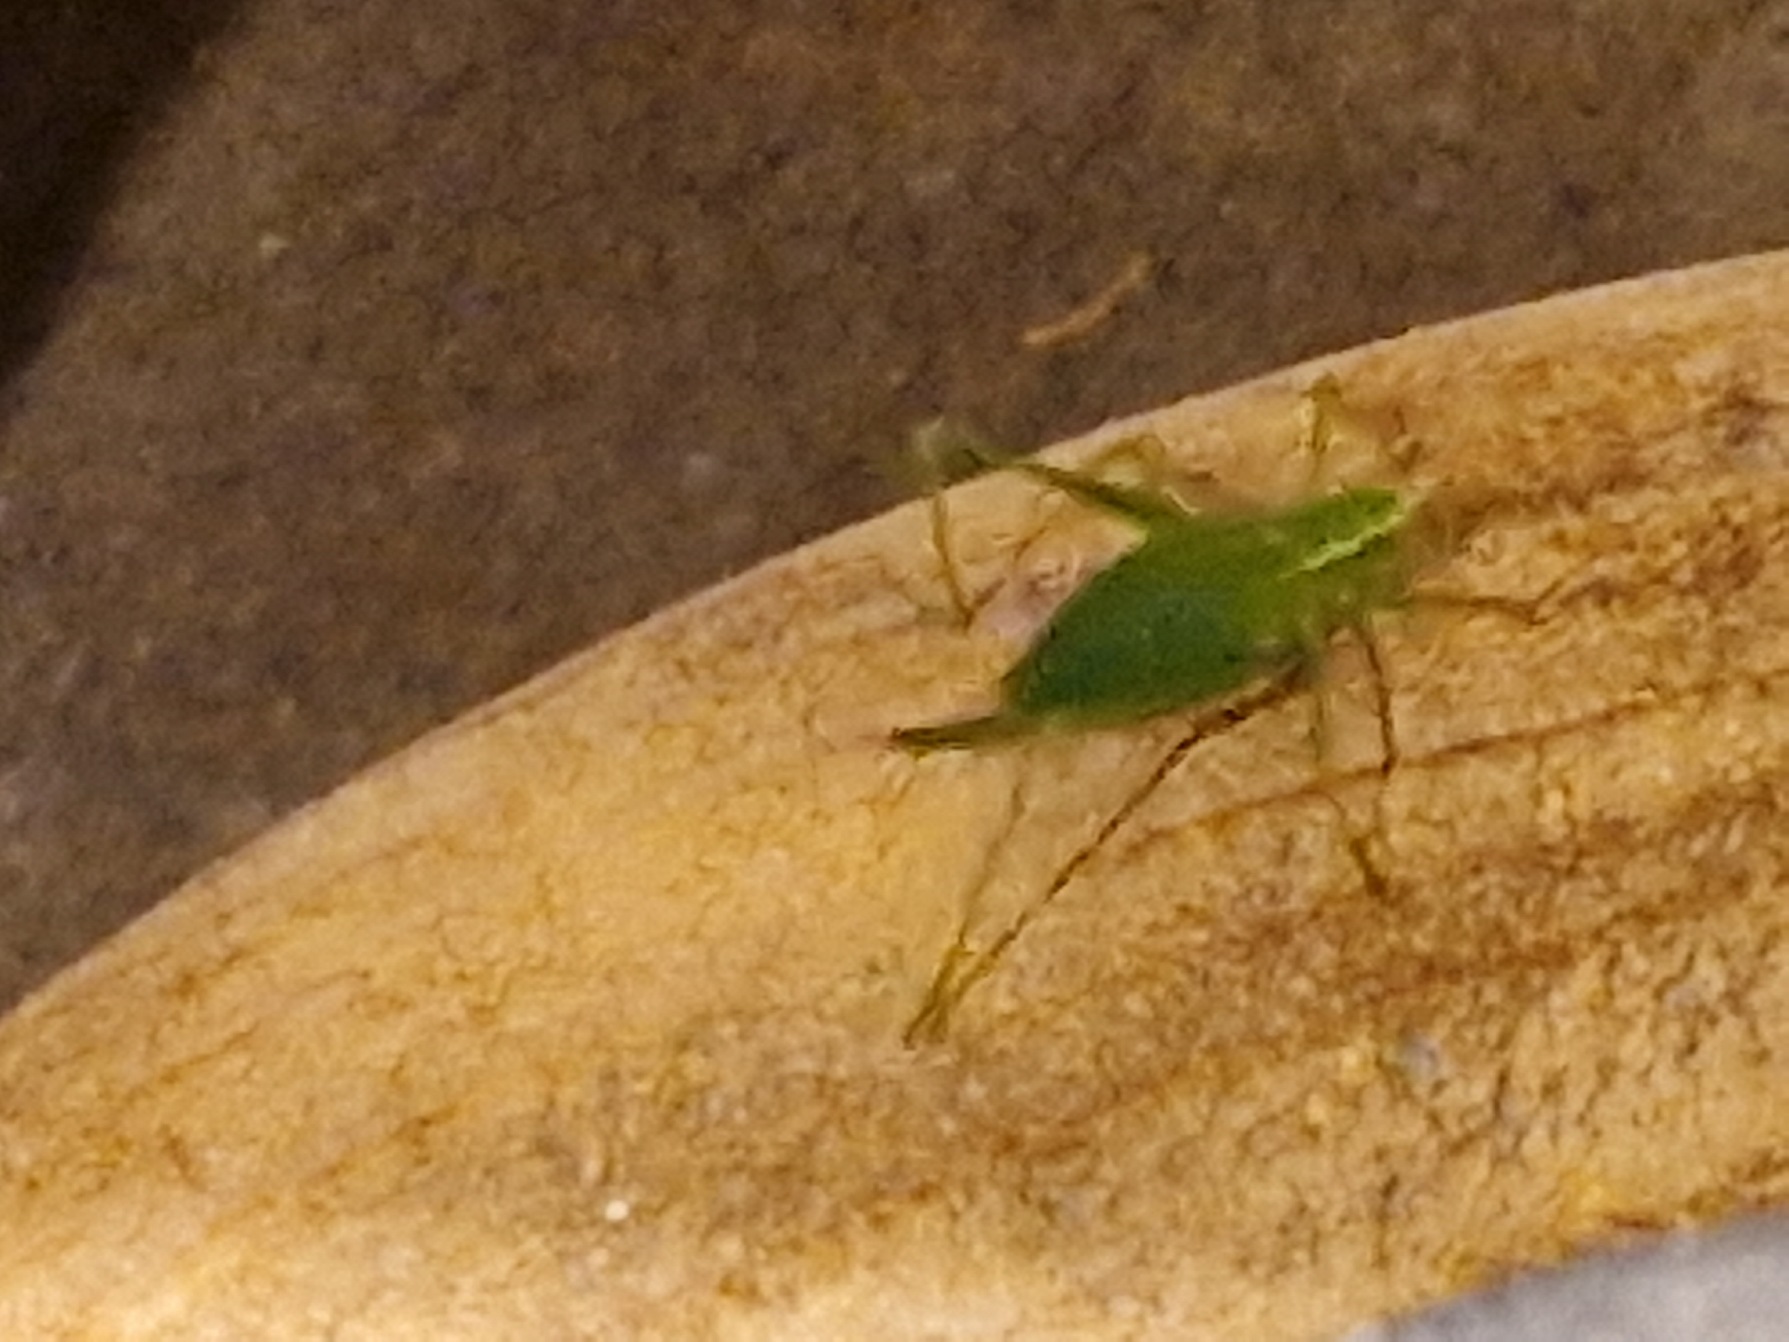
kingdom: Animalia
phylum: Arthropoda
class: Insecta
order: Orthoptera
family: Tettigoniidae
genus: Leptophyes
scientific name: Leptophyes punctatissima
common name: Krumknivgræshoppe
